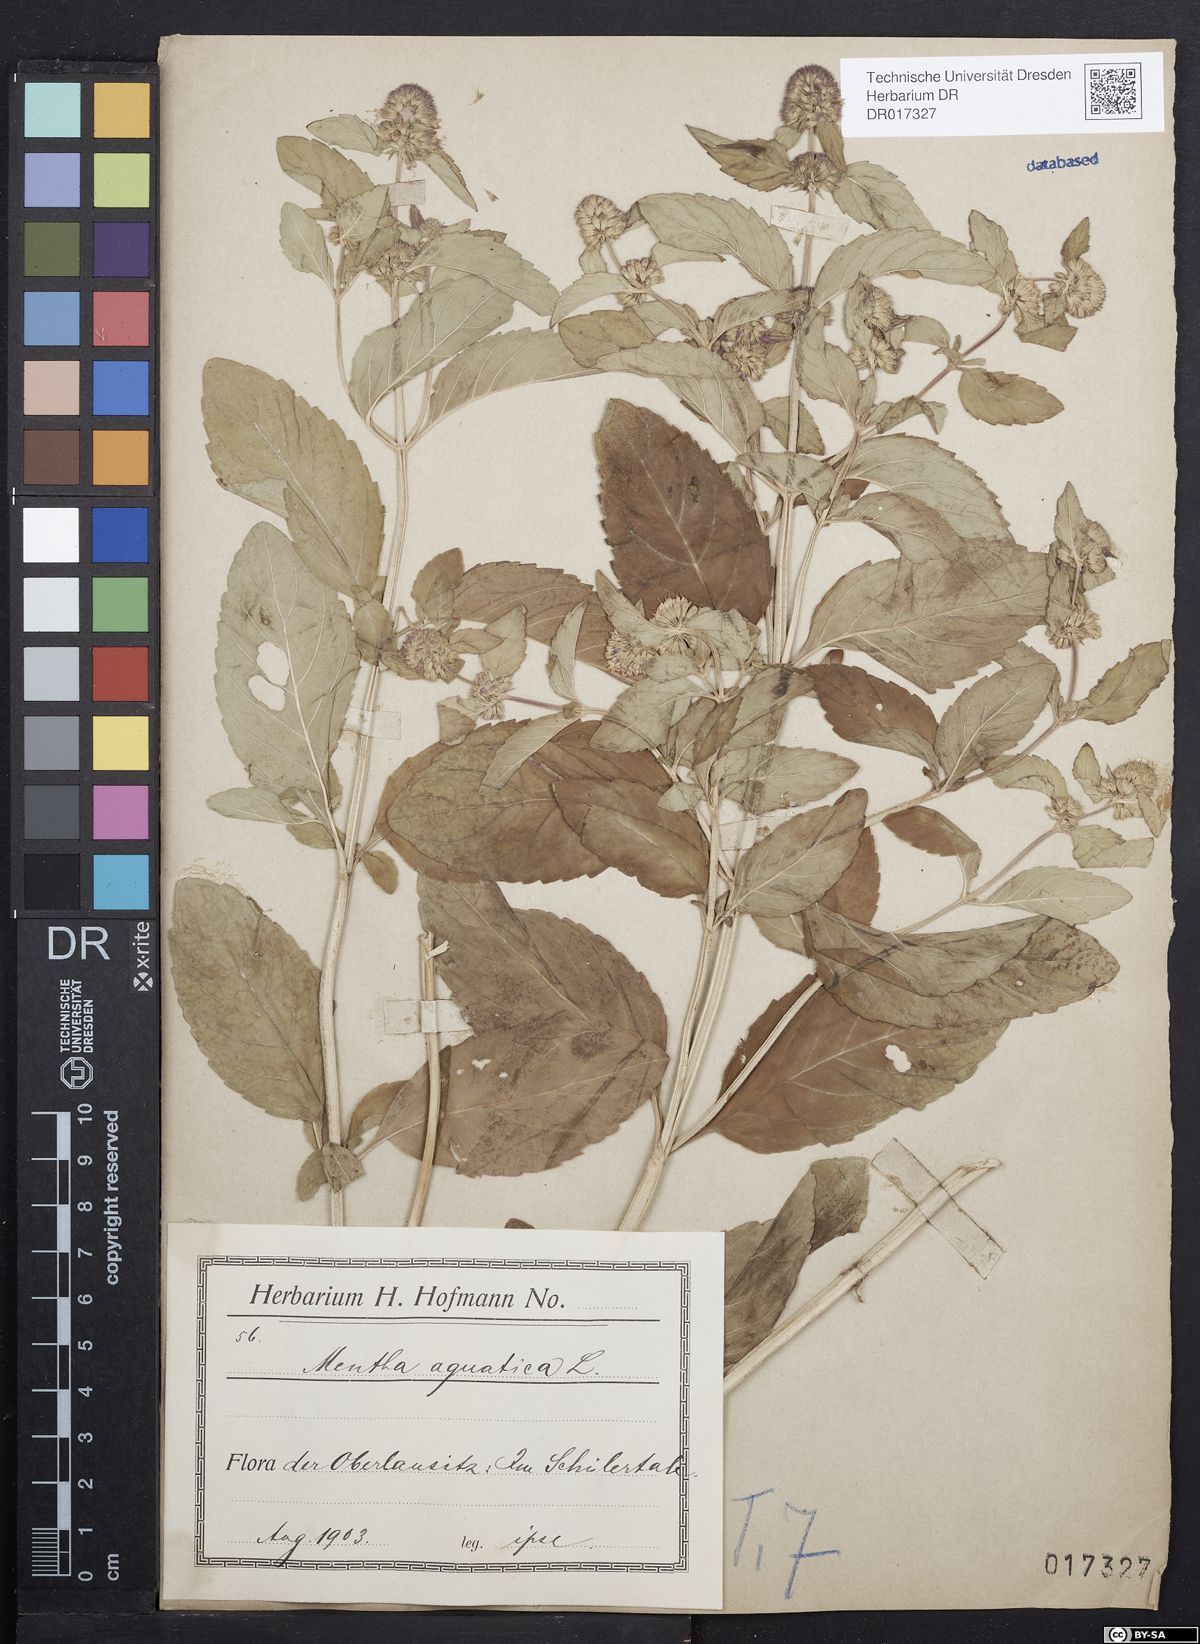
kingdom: Plantae
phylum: Tracheophyta
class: Magnoliopsida
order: Lamiales
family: Lamiaceae
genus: Mentha
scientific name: Mentha aquatica
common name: Water mint
